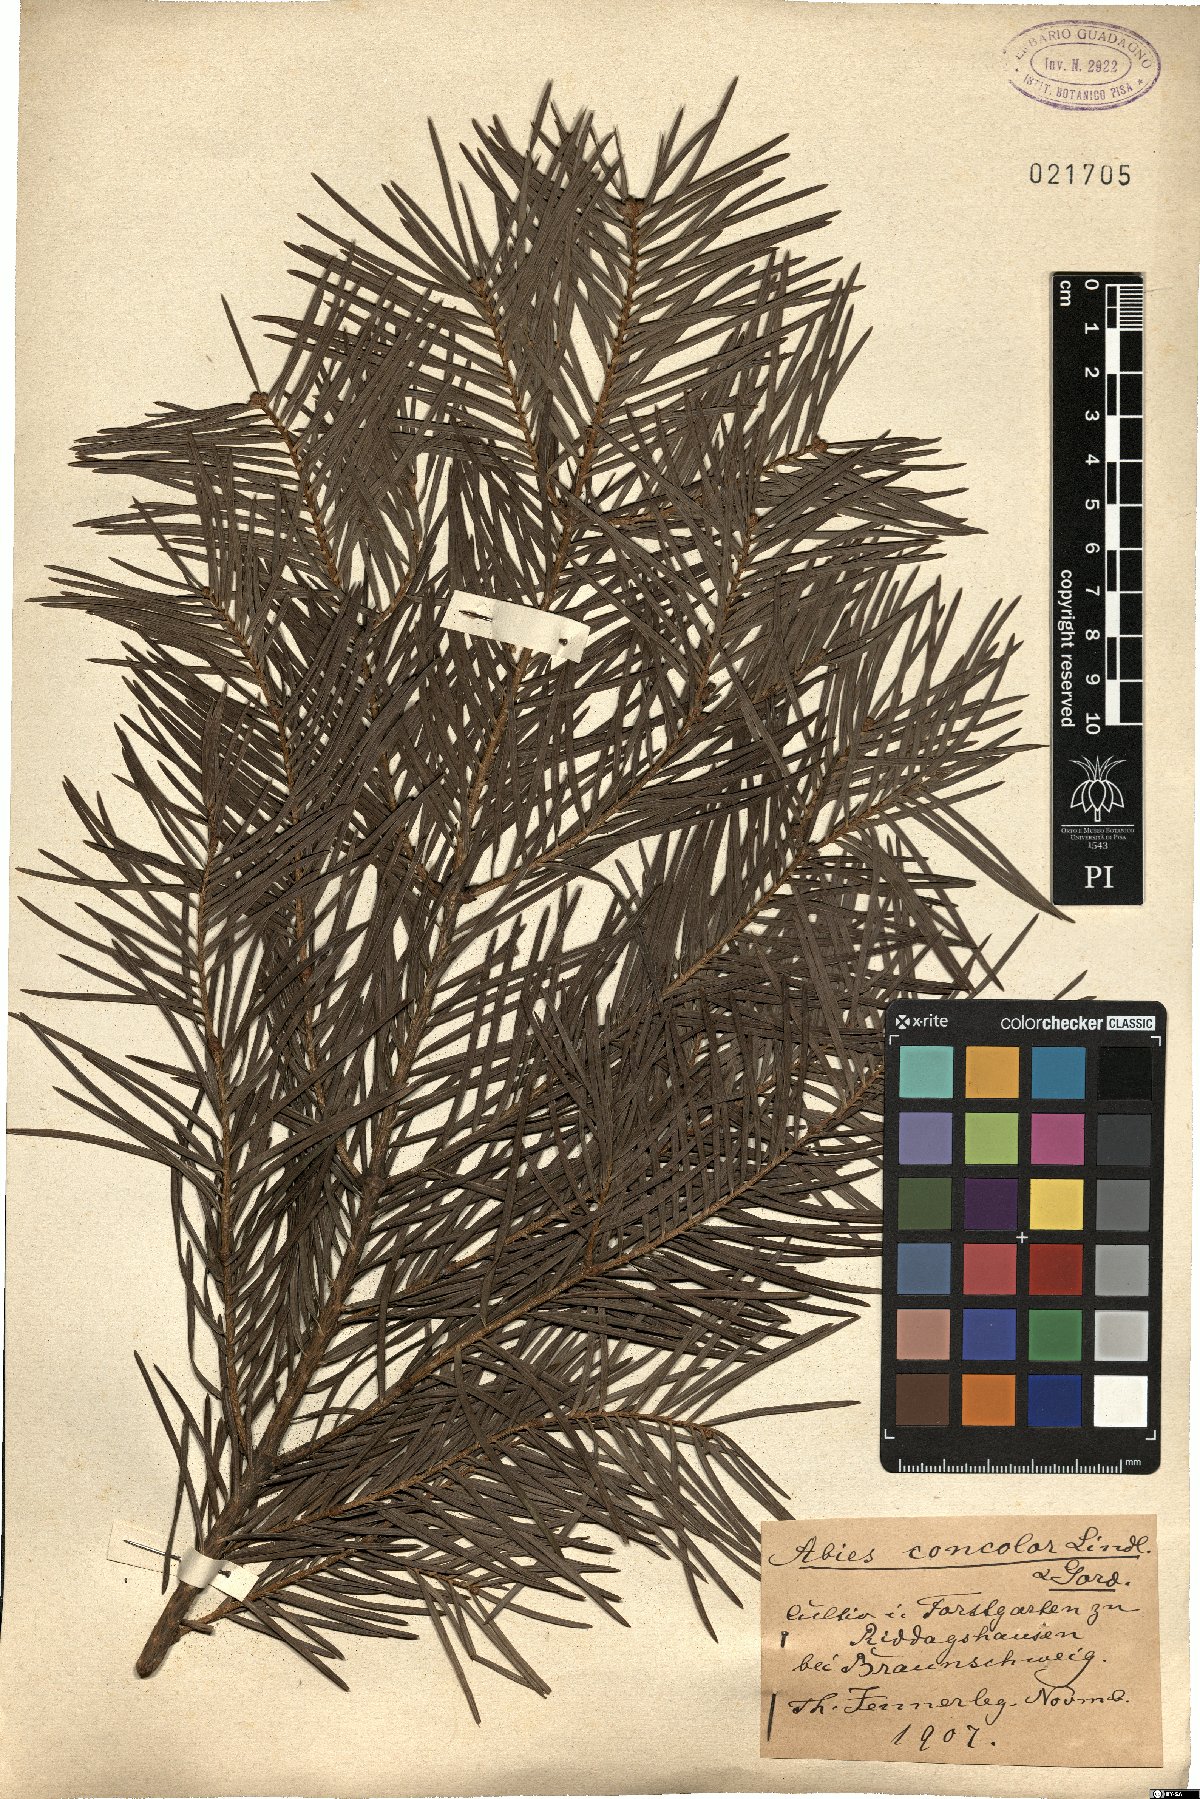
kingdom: Plantae
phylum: Tracheophyta
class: Pinopsida
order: Pinales
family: Pinaceae
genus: Abies
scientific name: Abies concolor
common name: Colorado fir
